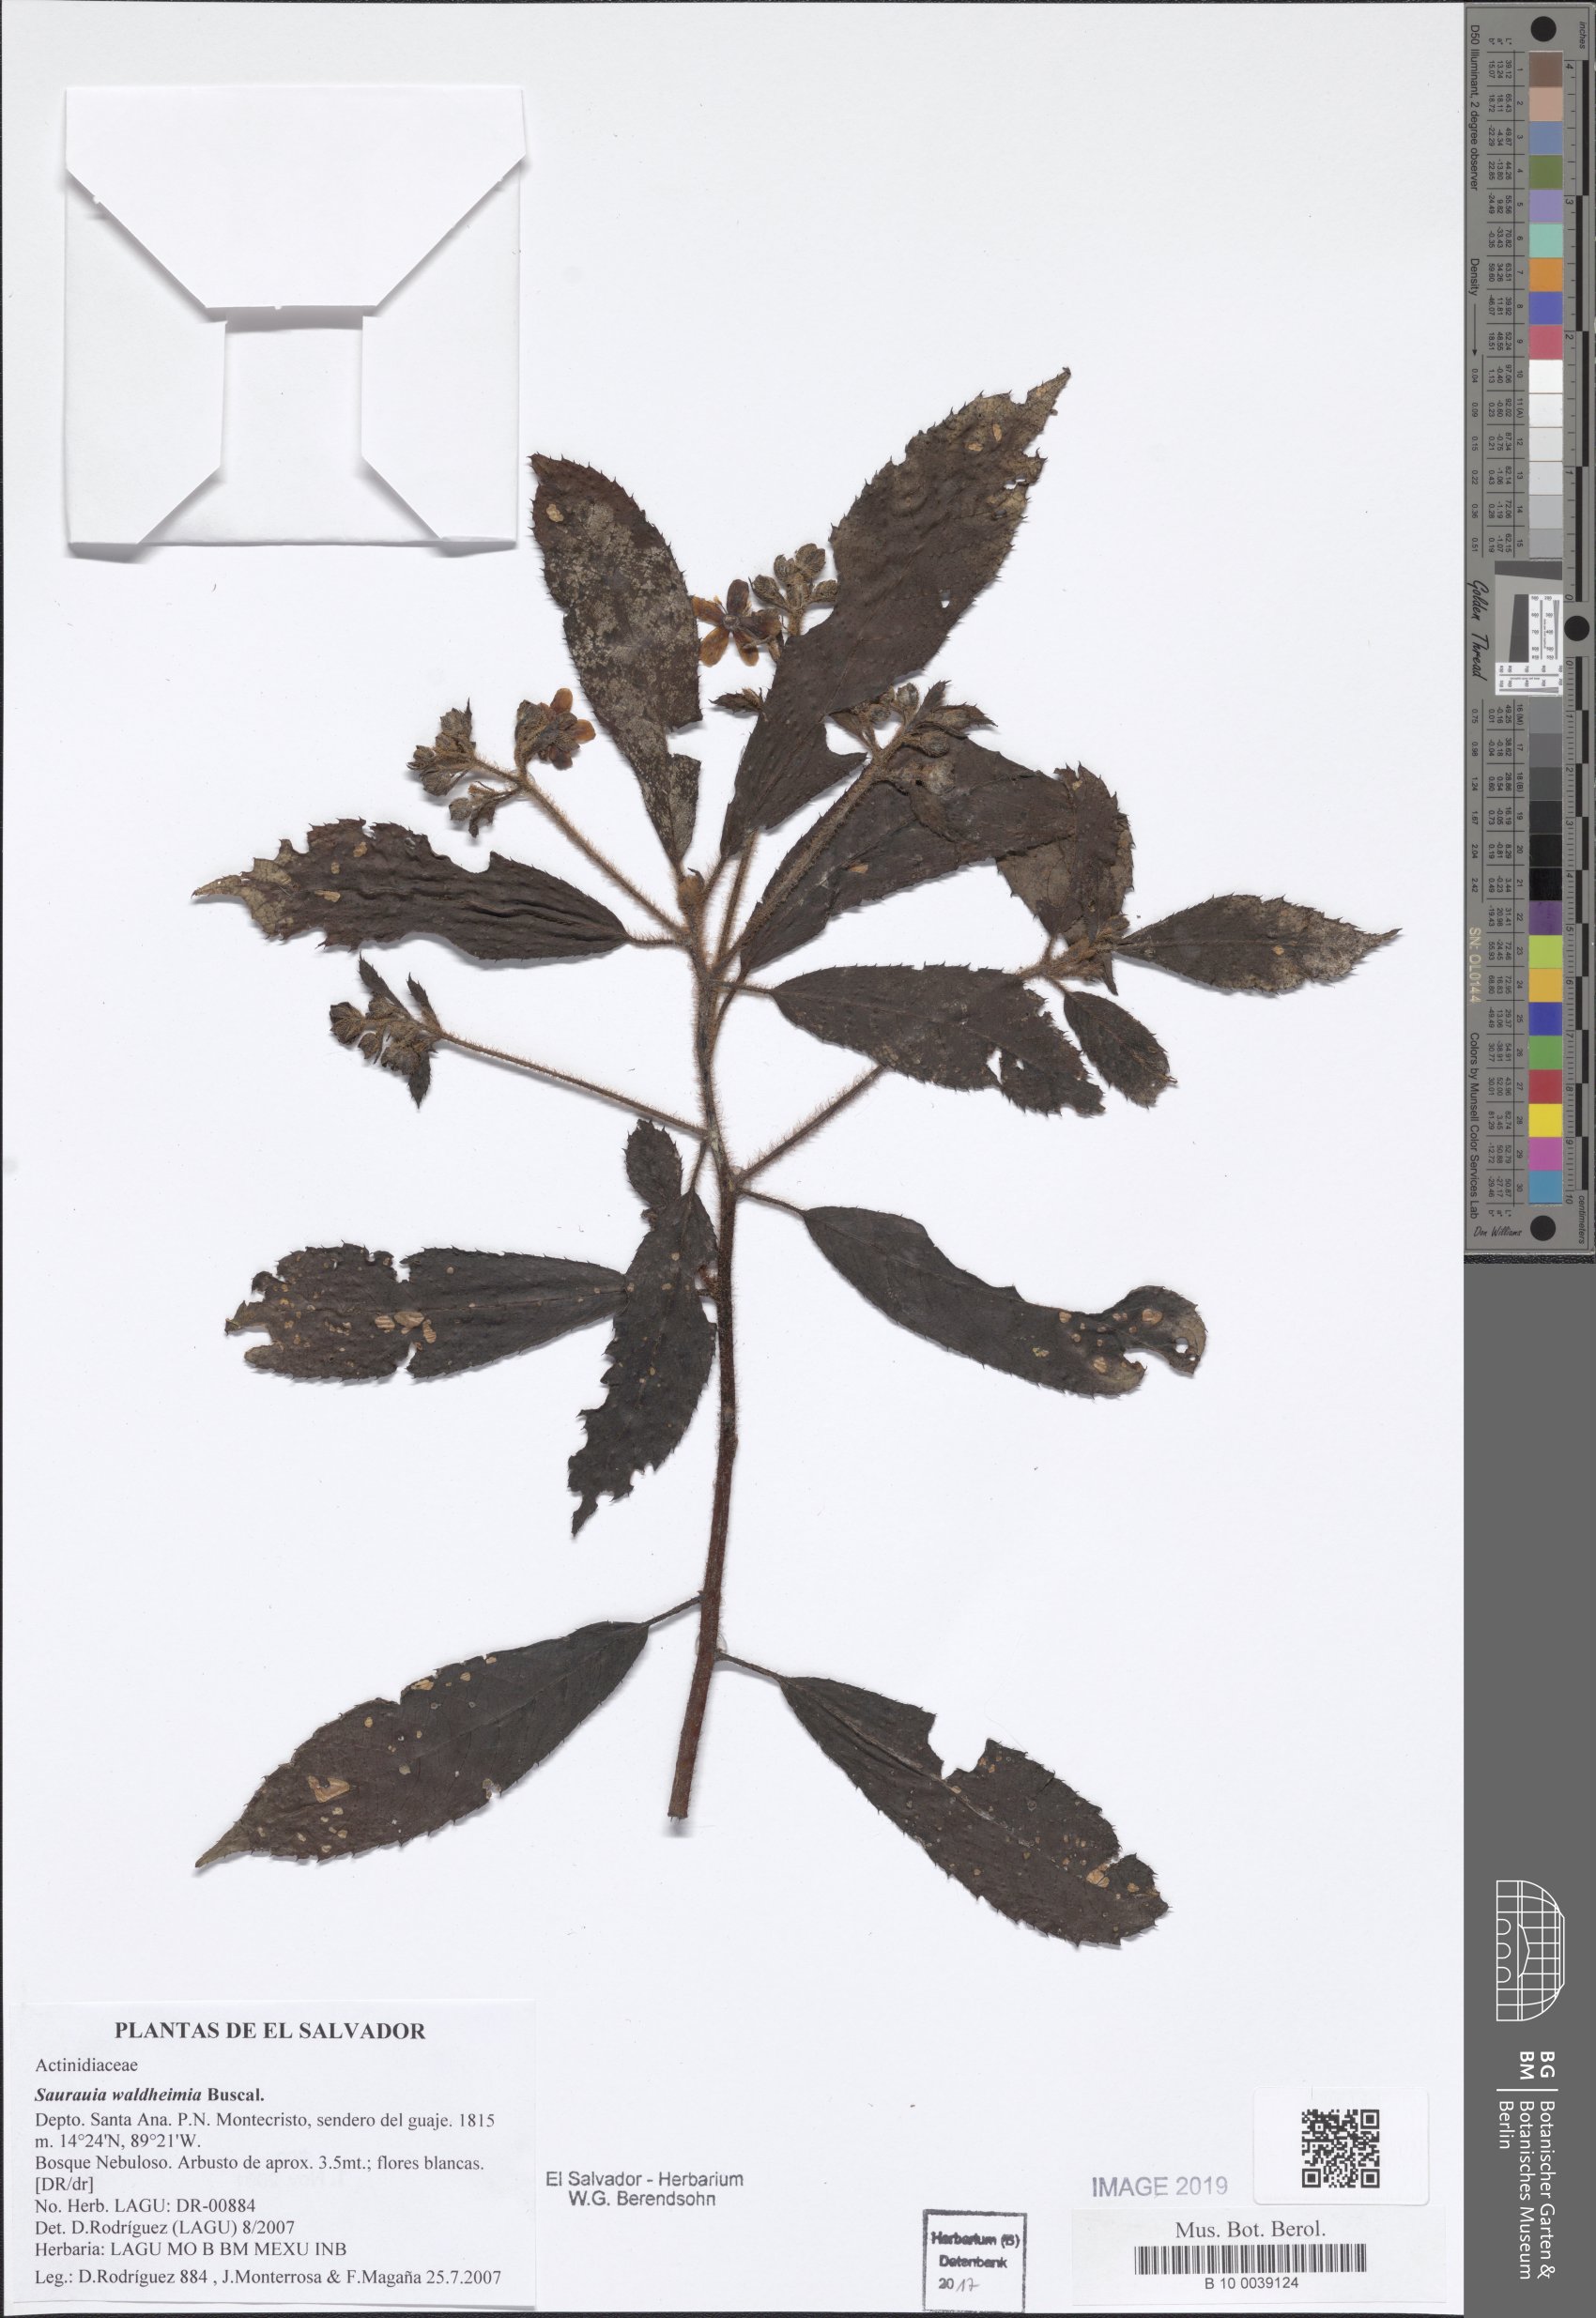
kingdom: Plantae
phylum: Tracheophyta
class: Magnoliopsida
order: Ericales
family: Actinidiaceae
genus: Saurauia
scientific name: Saurauia waldheimii
